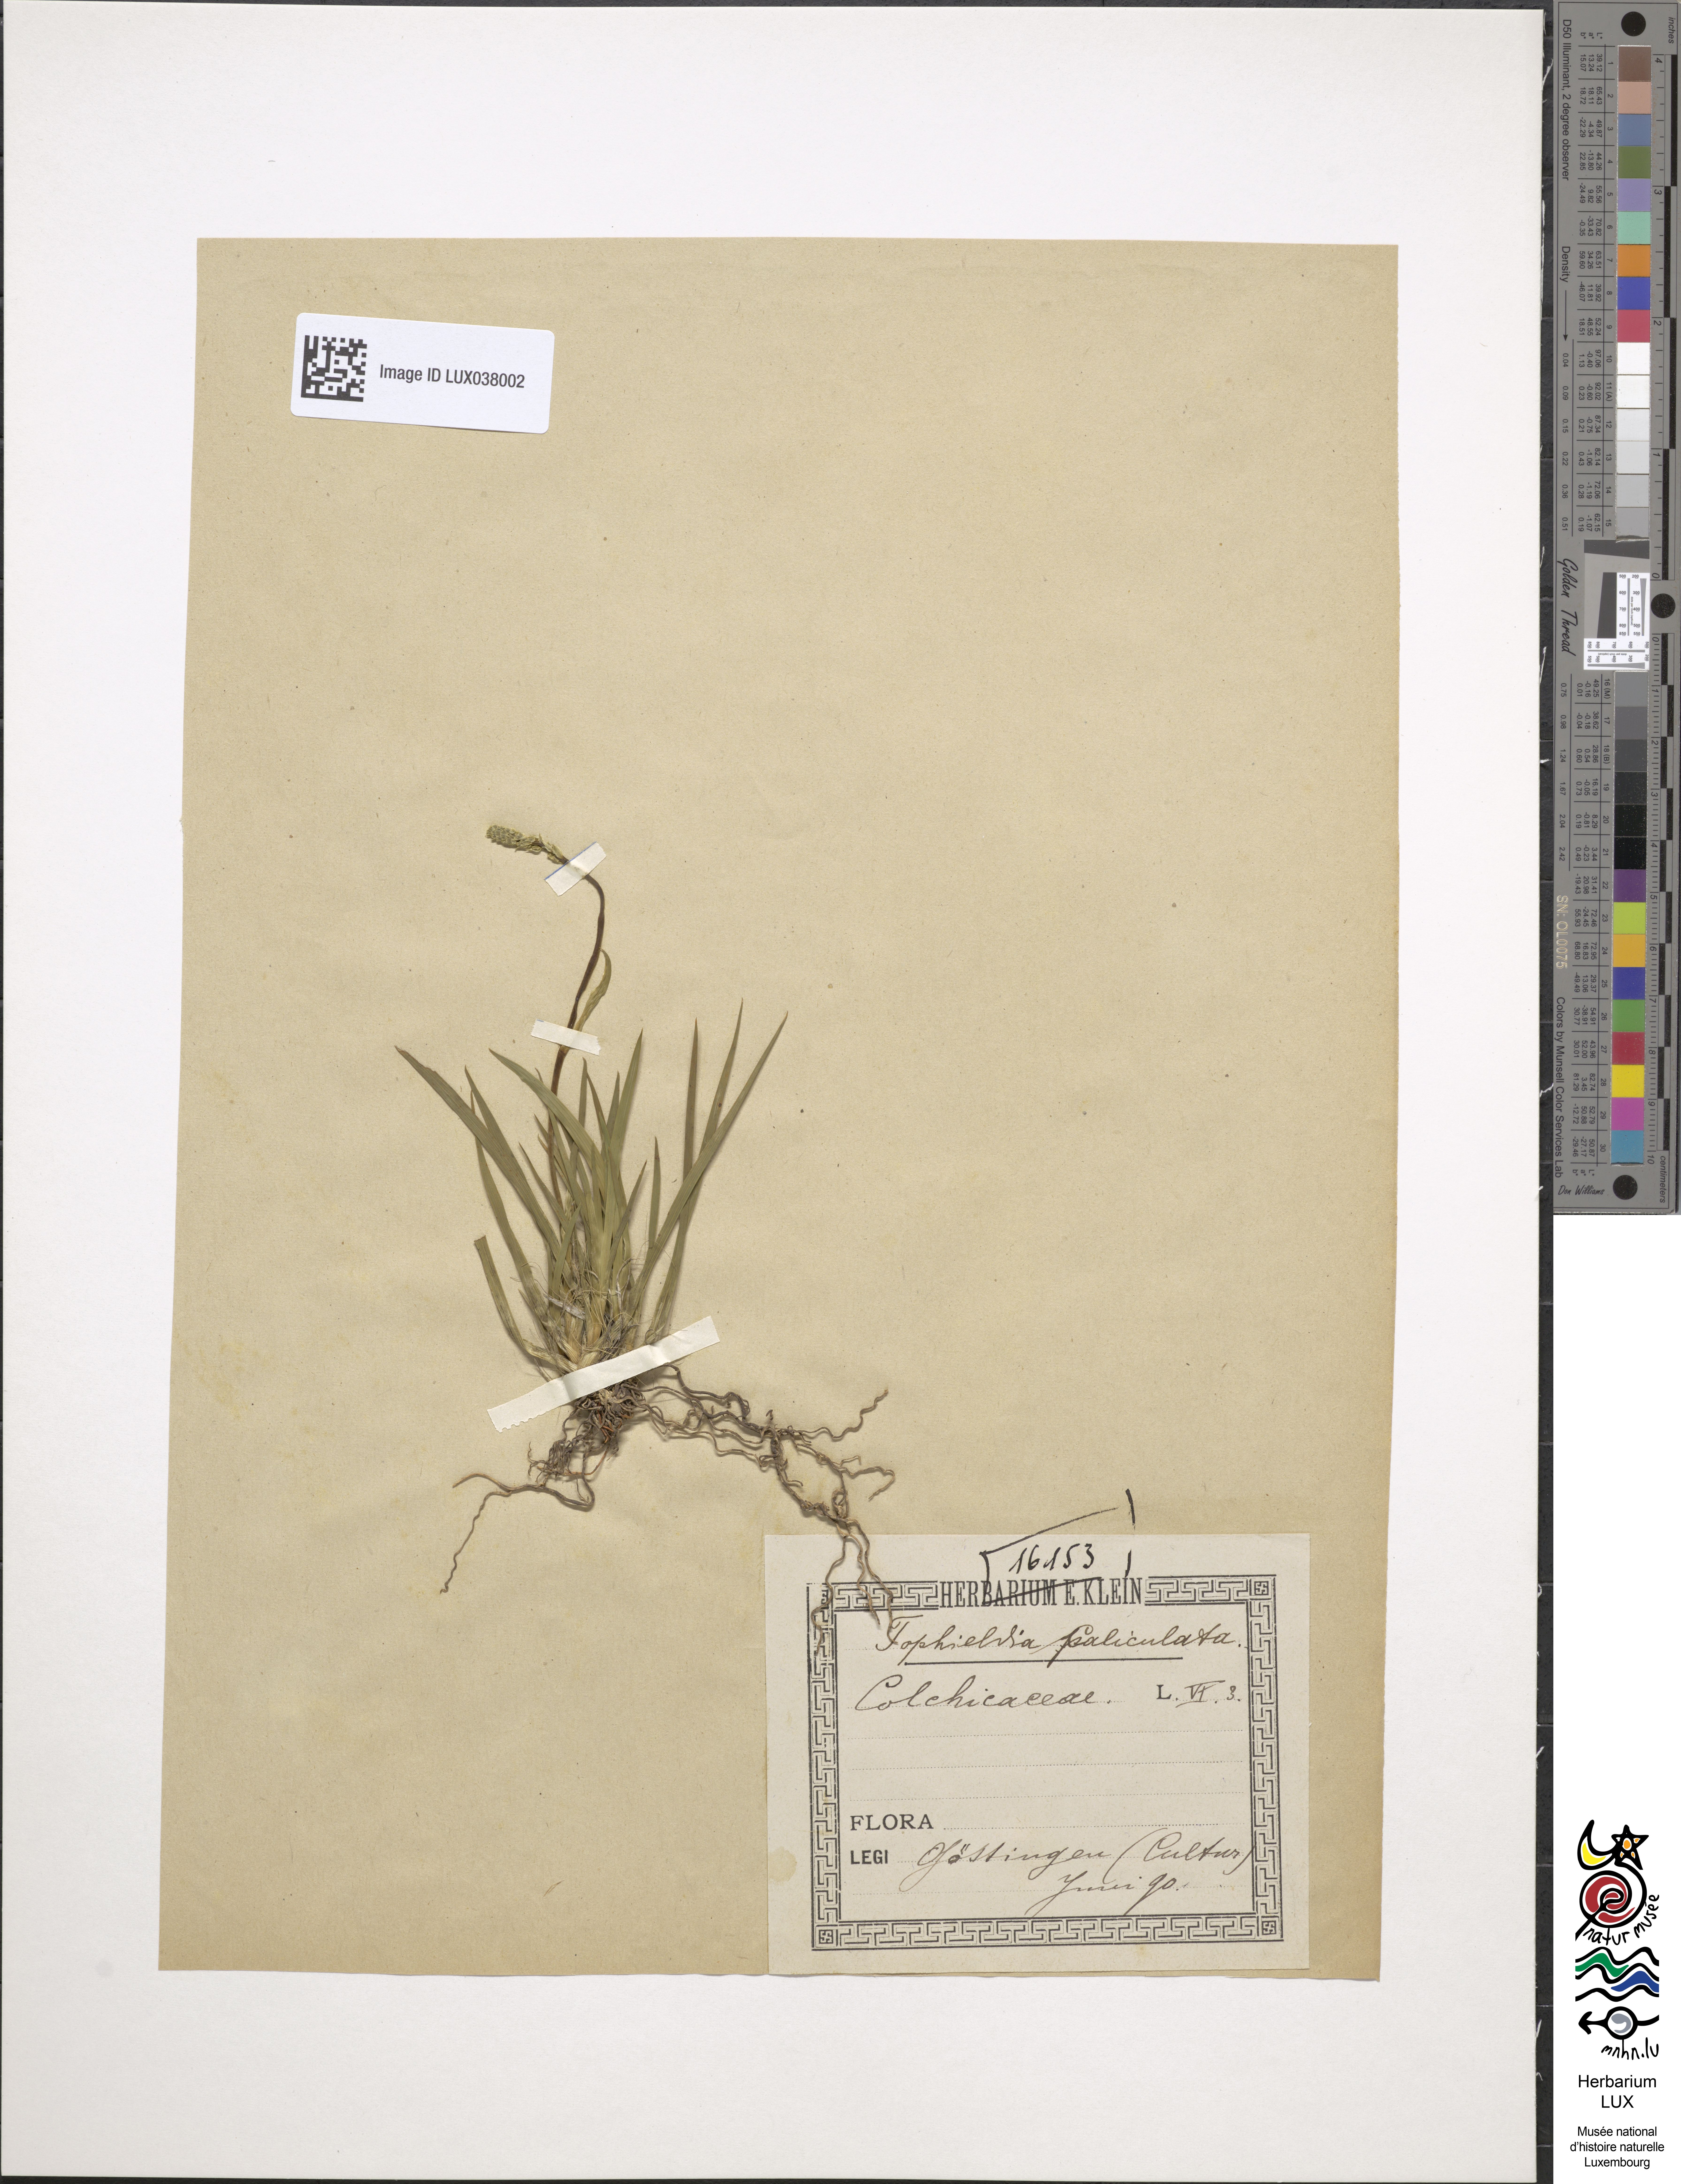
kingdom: Plantae
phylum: Tracheophyta
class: Liliopsida
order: Alismatales
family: Tofieldiaceae
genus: Tofieldia
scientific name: Tofieldia calyculata
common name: German-asphodel
